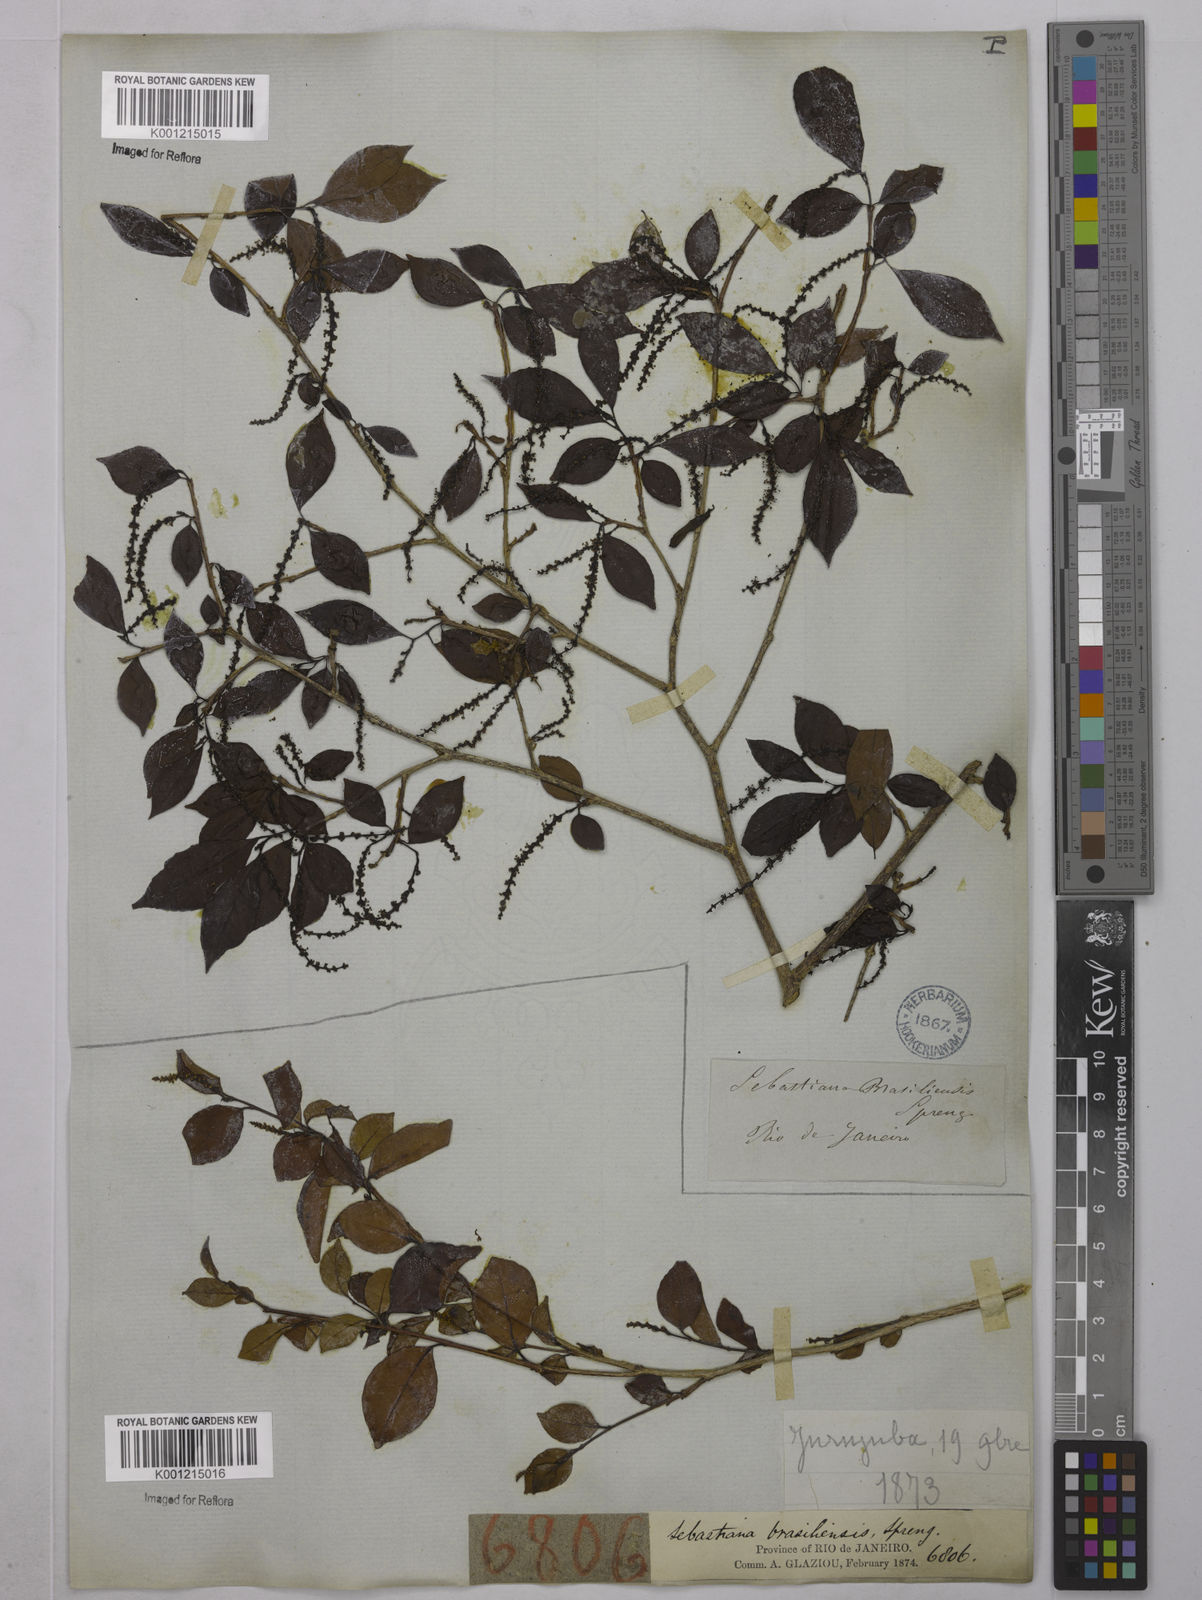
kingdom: Plantae
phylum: Tracheophyta
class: Magnoliopsida
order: Malpighiales
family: Euphorbiaceae
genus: Sebastiania
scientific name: Sebastiania brasiliensis
